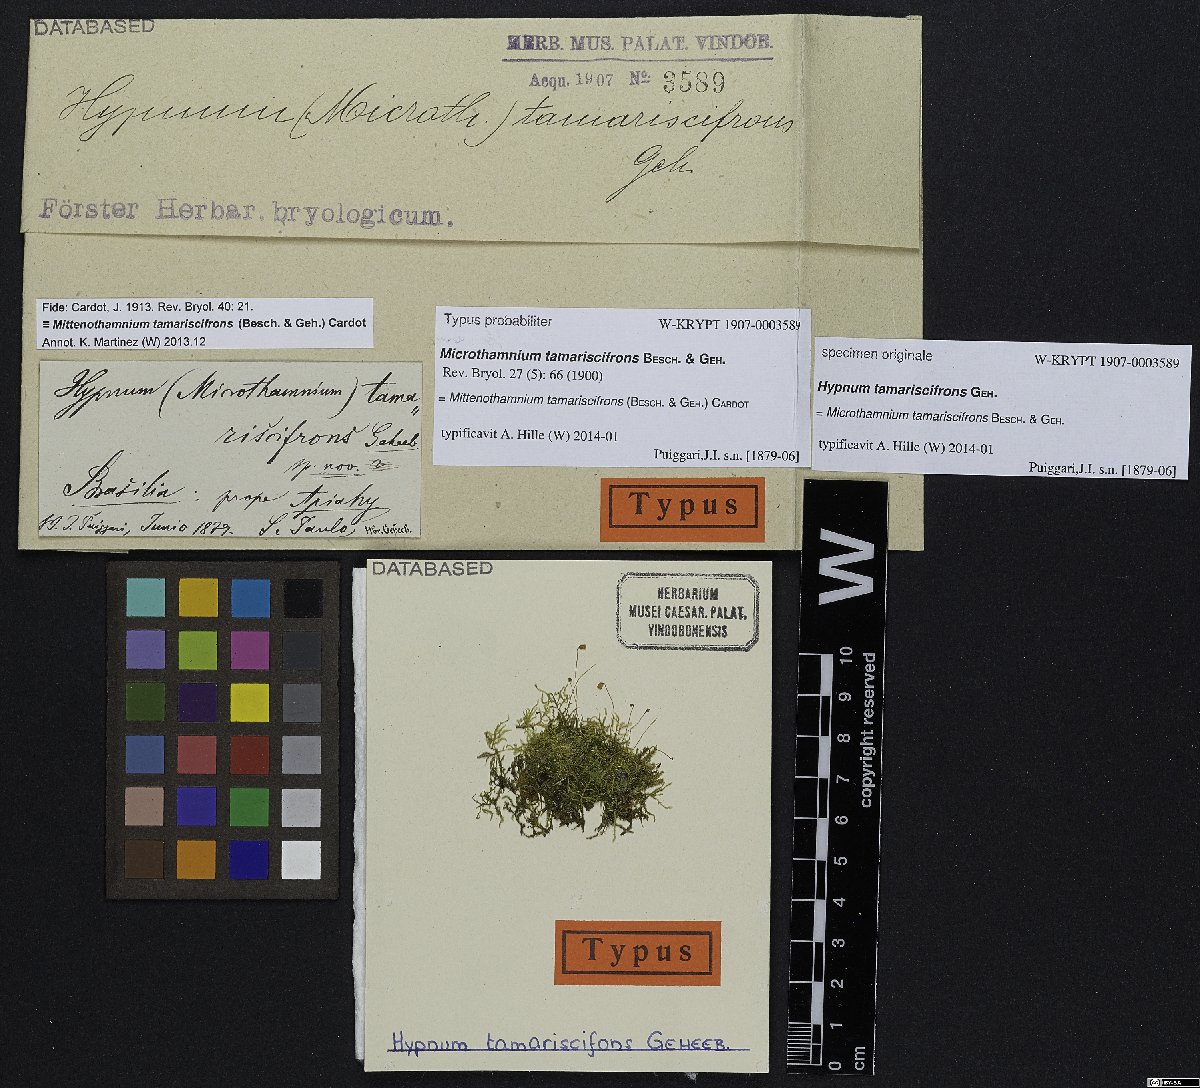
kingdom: Plantae
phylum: Bryophyta
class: Bryopsida
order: Hypnales
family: Hypnaceae
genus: Mittenothamnium
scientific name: Mittenothamnium tamariscifrons
